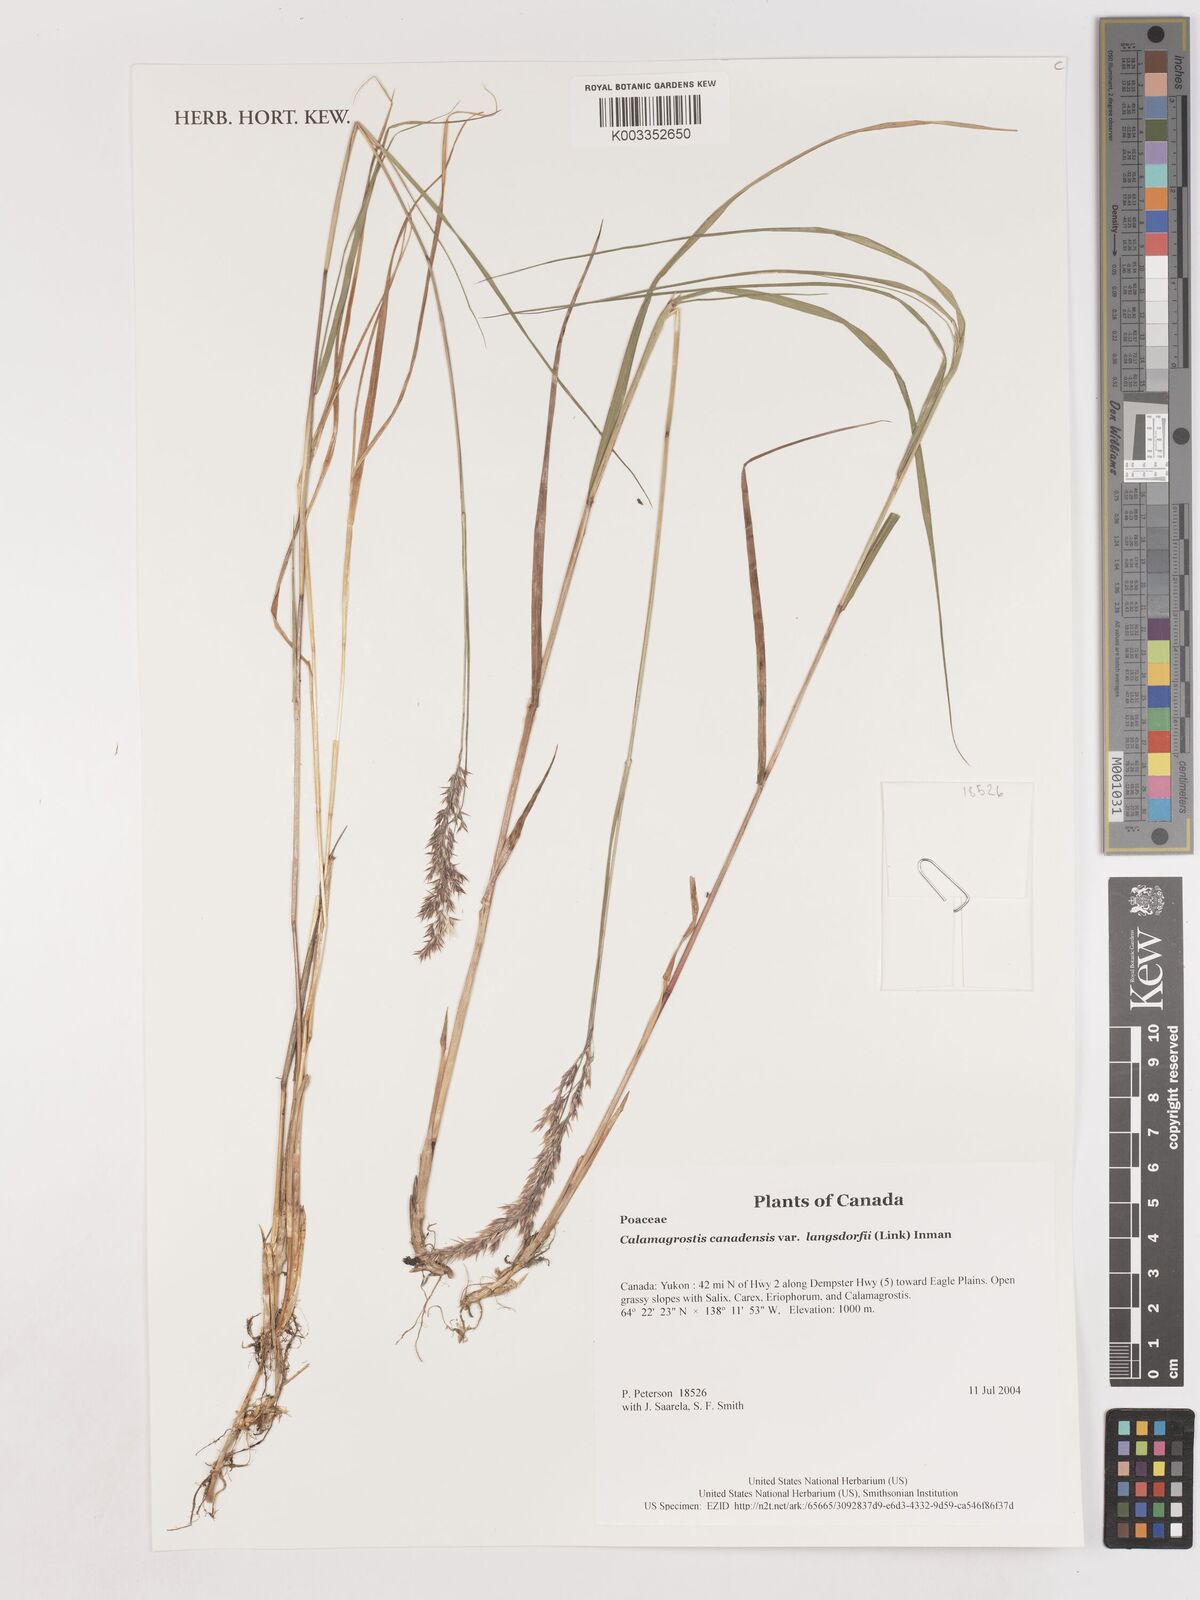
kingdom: Plantae
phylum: Tracheophyta
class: Liliopsida
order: Poales
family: Poaceae
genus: Calamagrostis
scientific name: Calamagrostis canadensis
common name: Canada bluejoint
